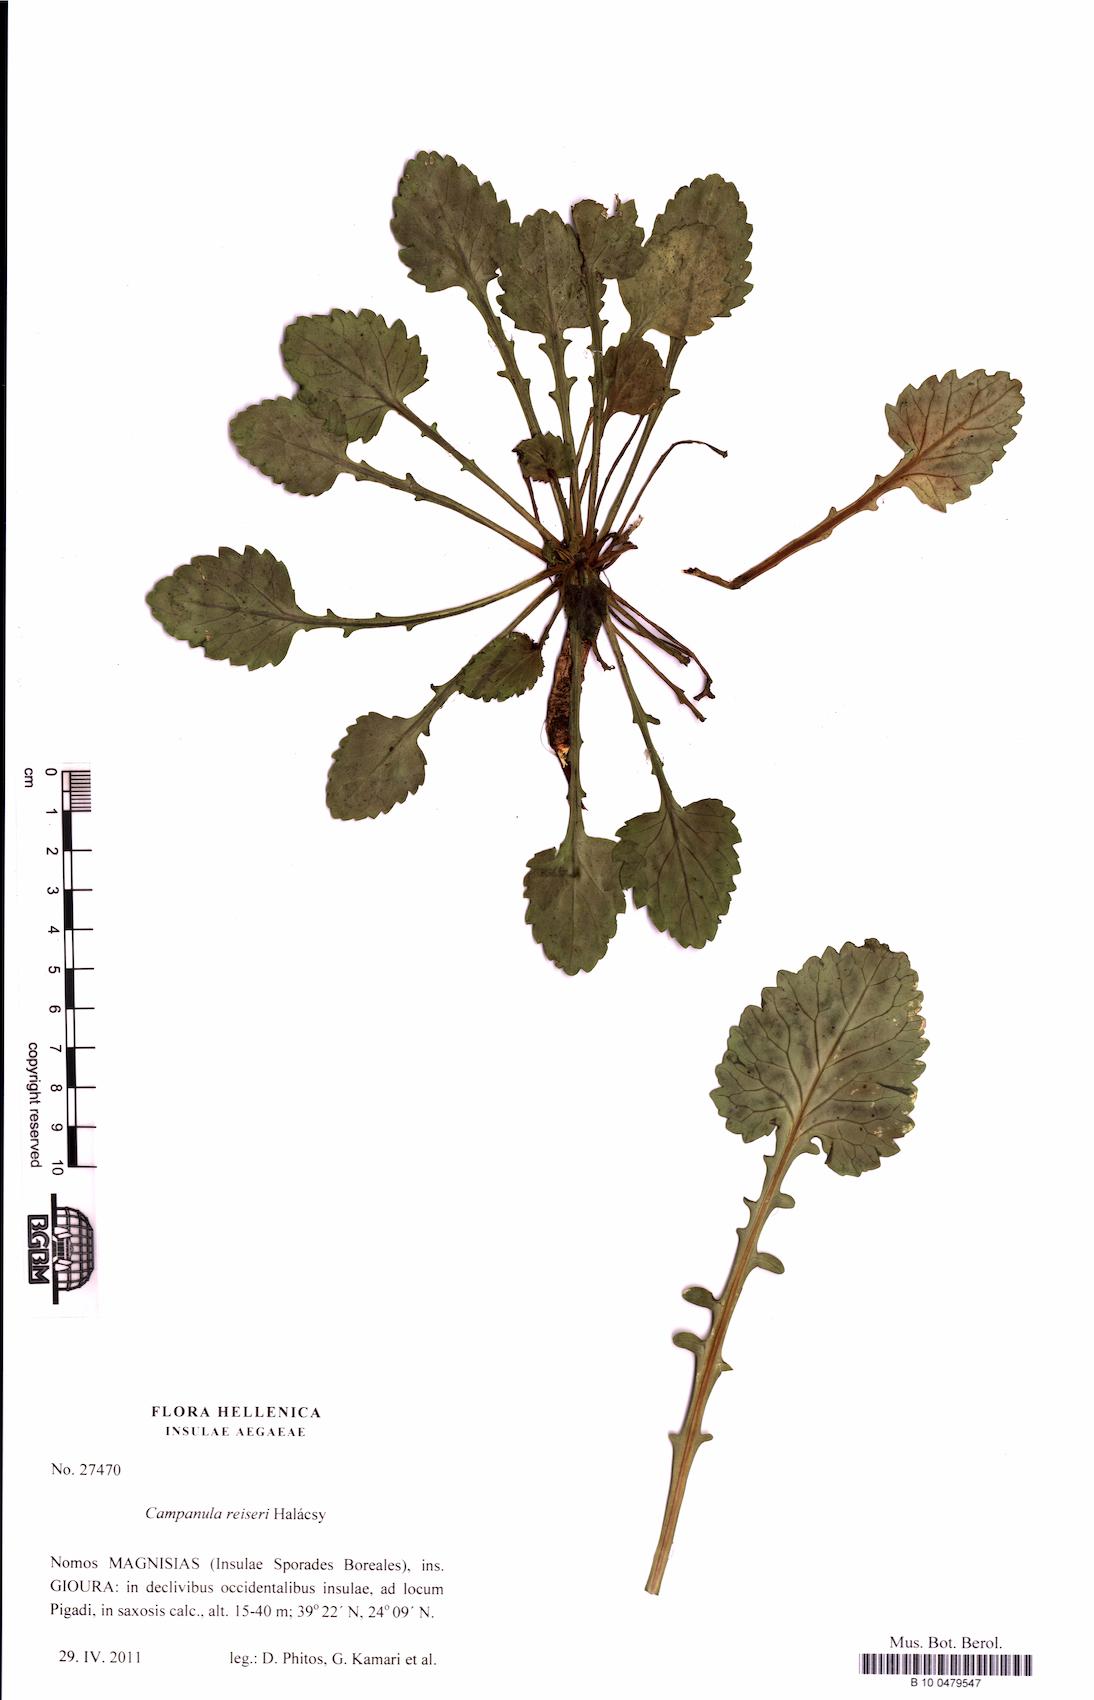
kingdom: Plantae
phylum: Tracheophyta
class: Magnoliopsida
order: Asterales
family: Campanulaceae
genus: Campanula
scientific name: Campanula reiseri
